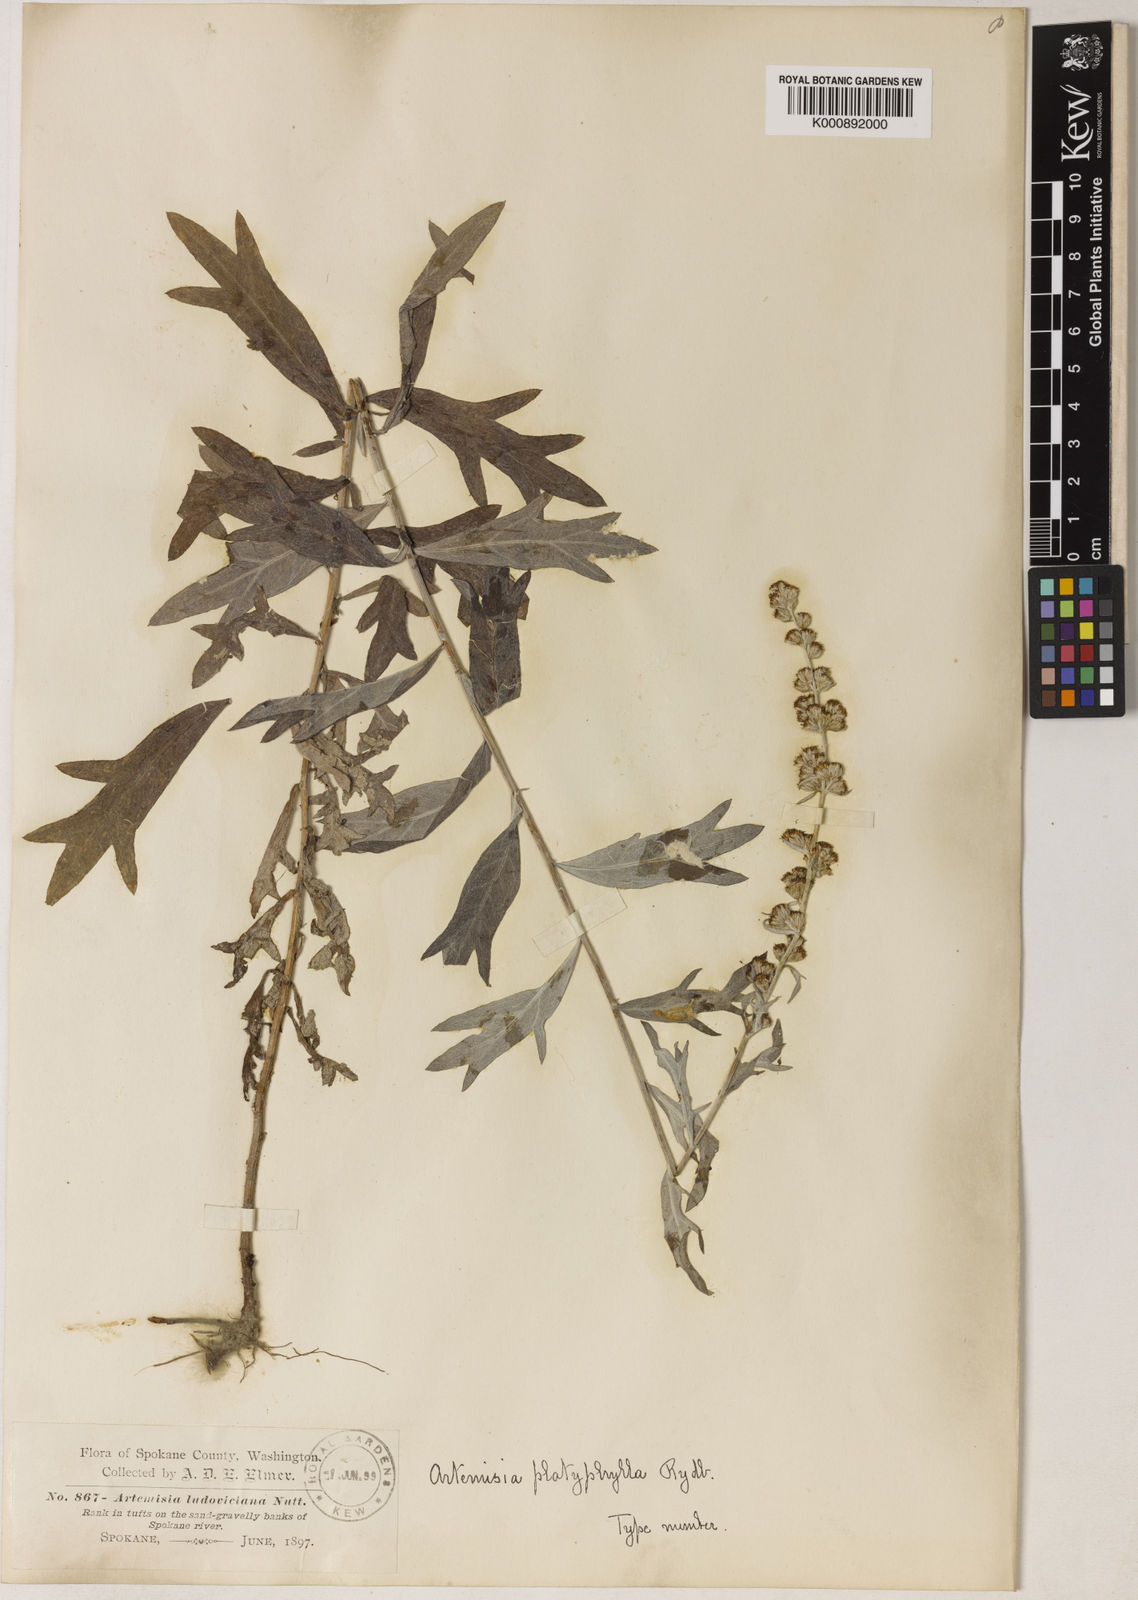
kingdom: Plantae
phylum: Tracheophyta
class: Magnoliopsida
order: Asterales
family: Asteraceae
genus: Artemisia
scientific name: Artemisia ludoviciana
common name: Western mugwort
